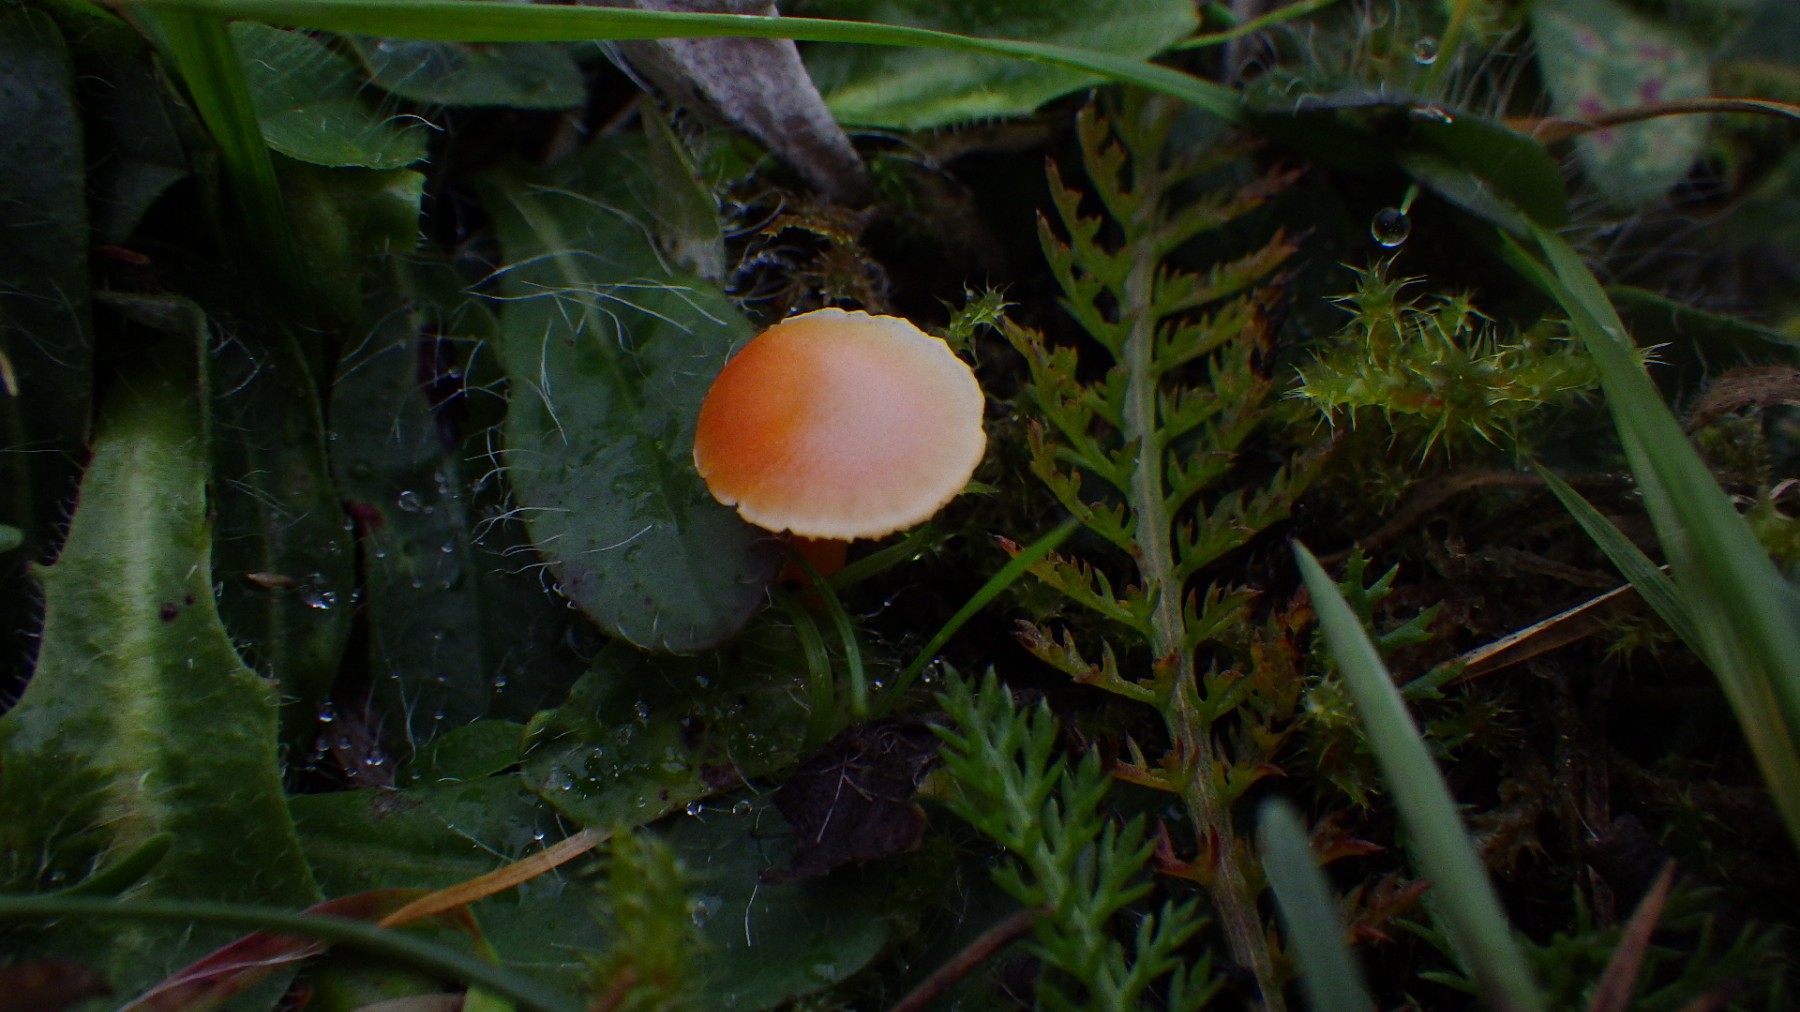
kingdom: Fungi
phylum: Basidiomycota
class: Agaricomycetes
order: Agaricales
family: Hygrophoraceae
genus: Hygrocybe
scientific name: Hygrocybe mucronella
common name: bitter vokshat
